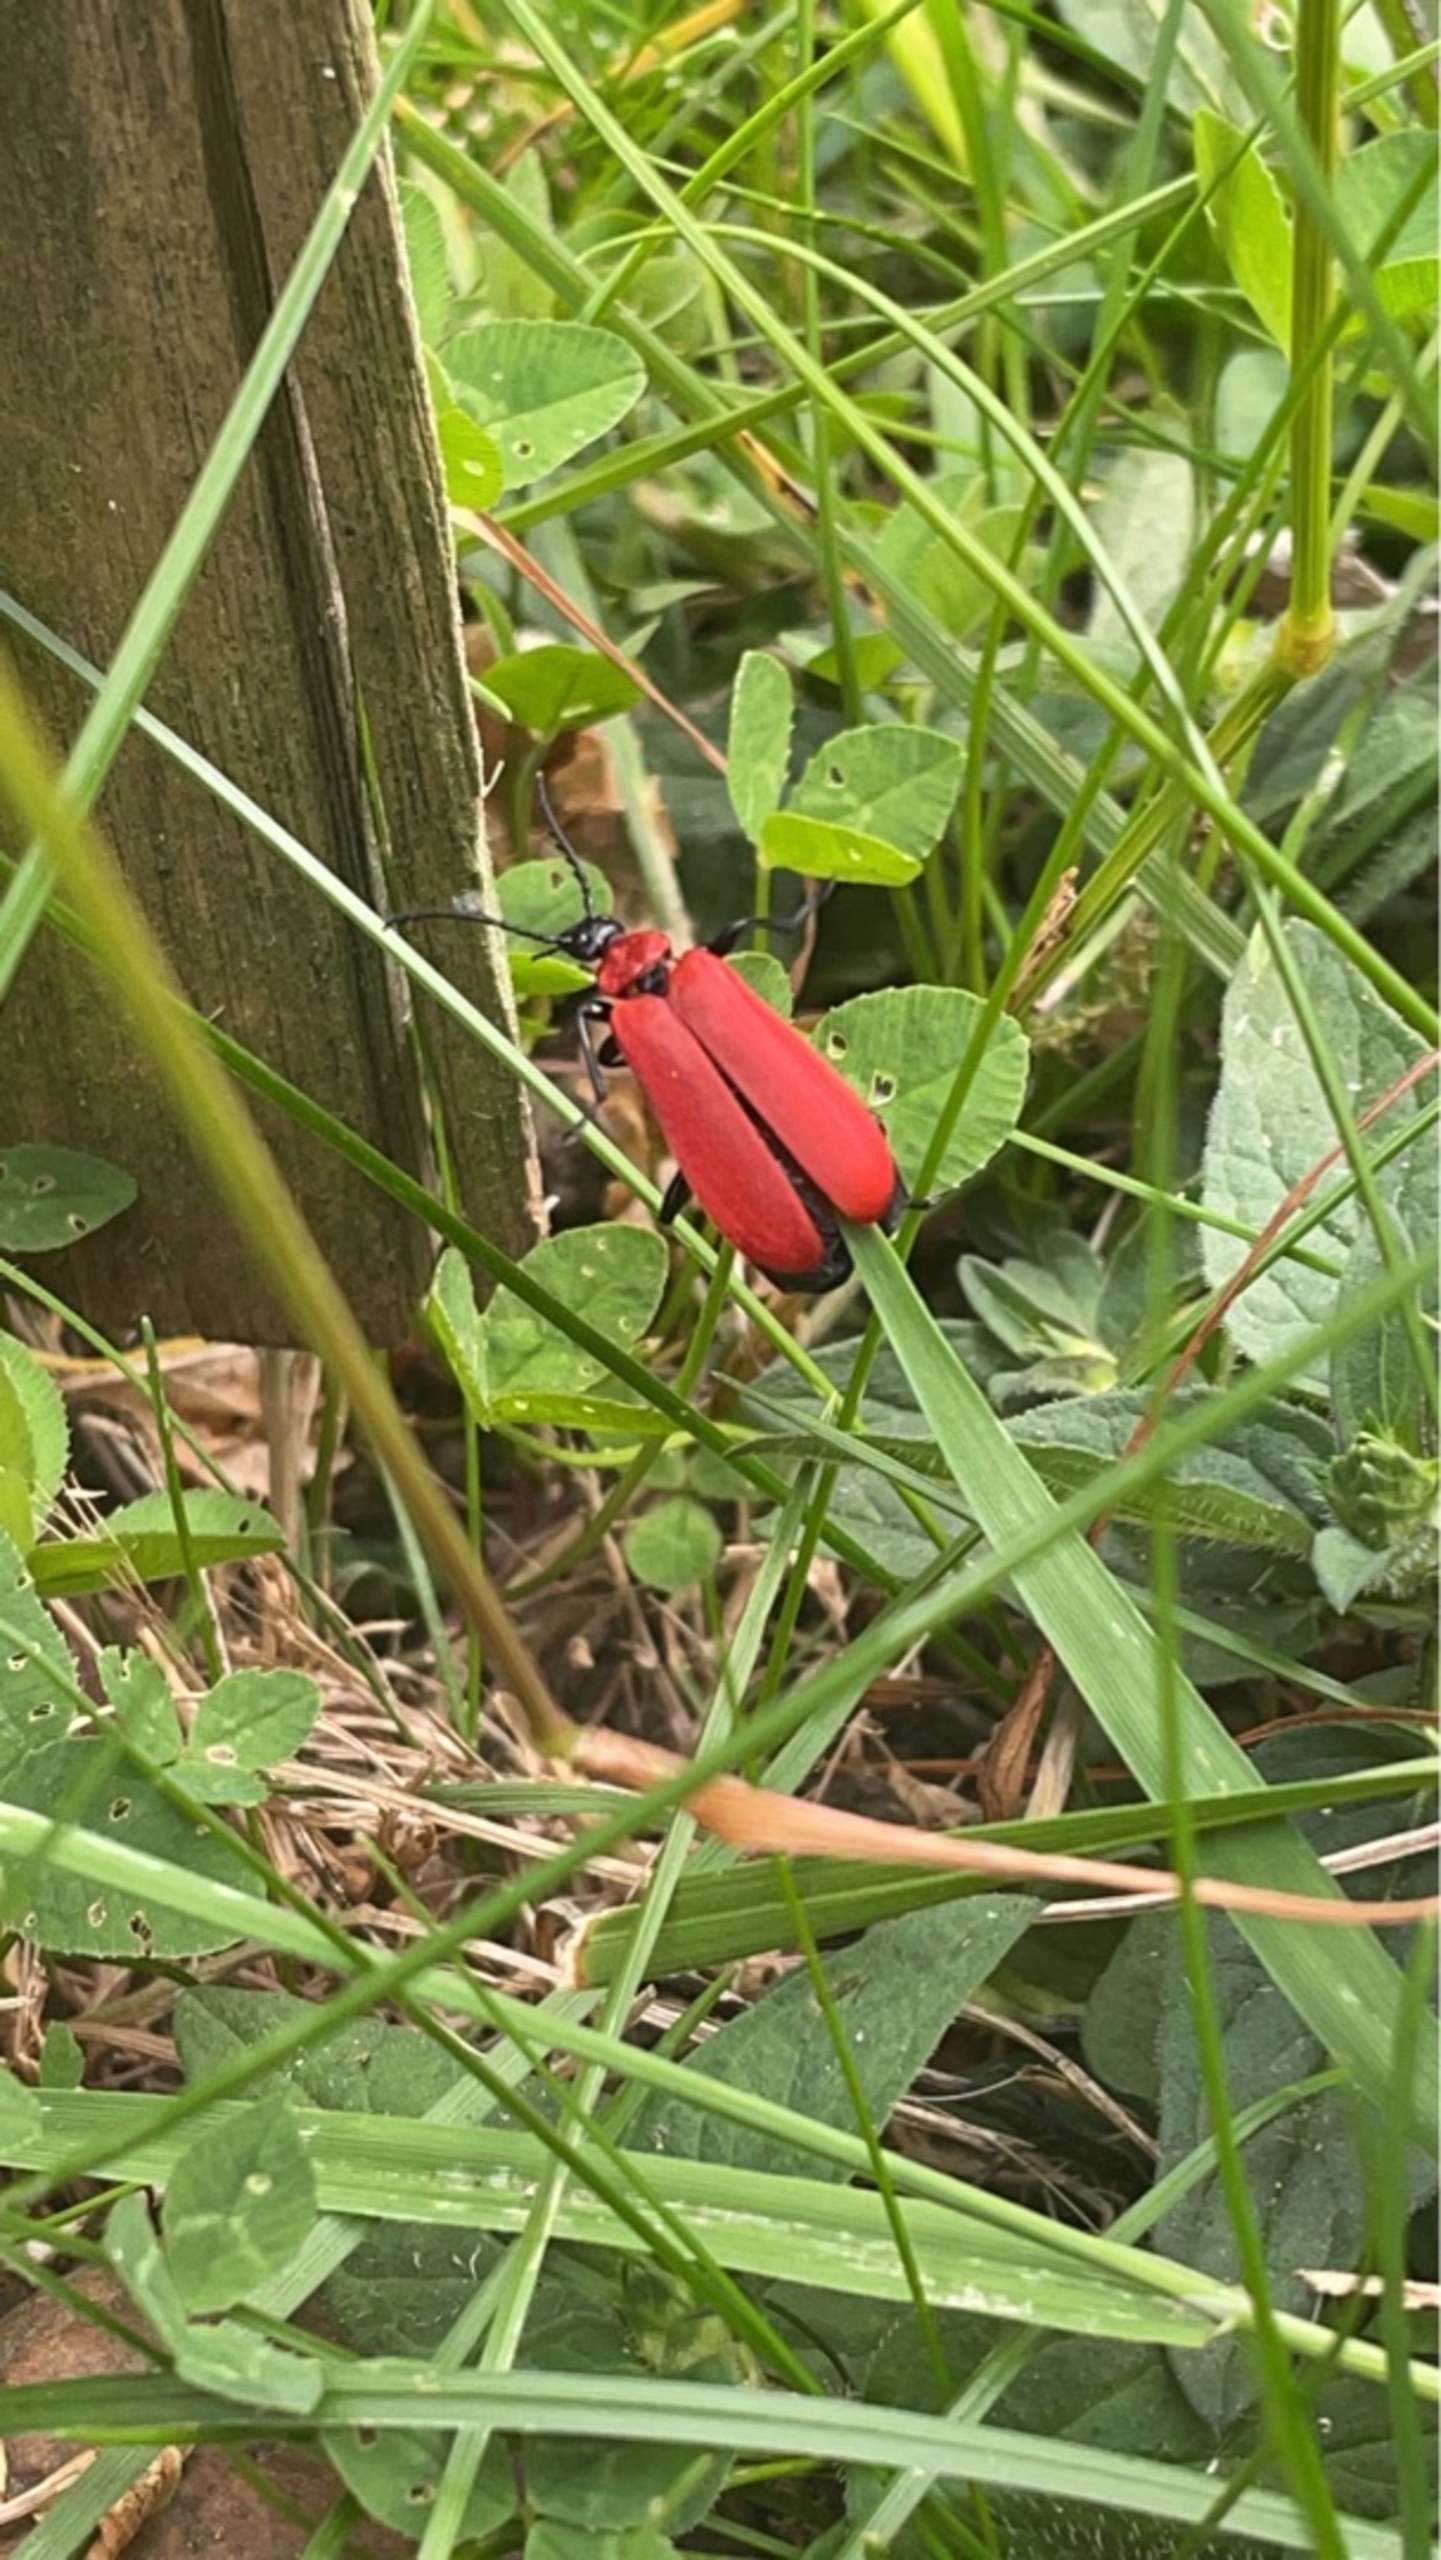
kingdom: Animalia
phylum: Arthropoda
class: Insecta
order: Coleoptera
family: Pyrochroidae
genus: Pyrochroa
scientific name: Pyrochroa coccinea
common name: Sorthovedet kardinalbille
